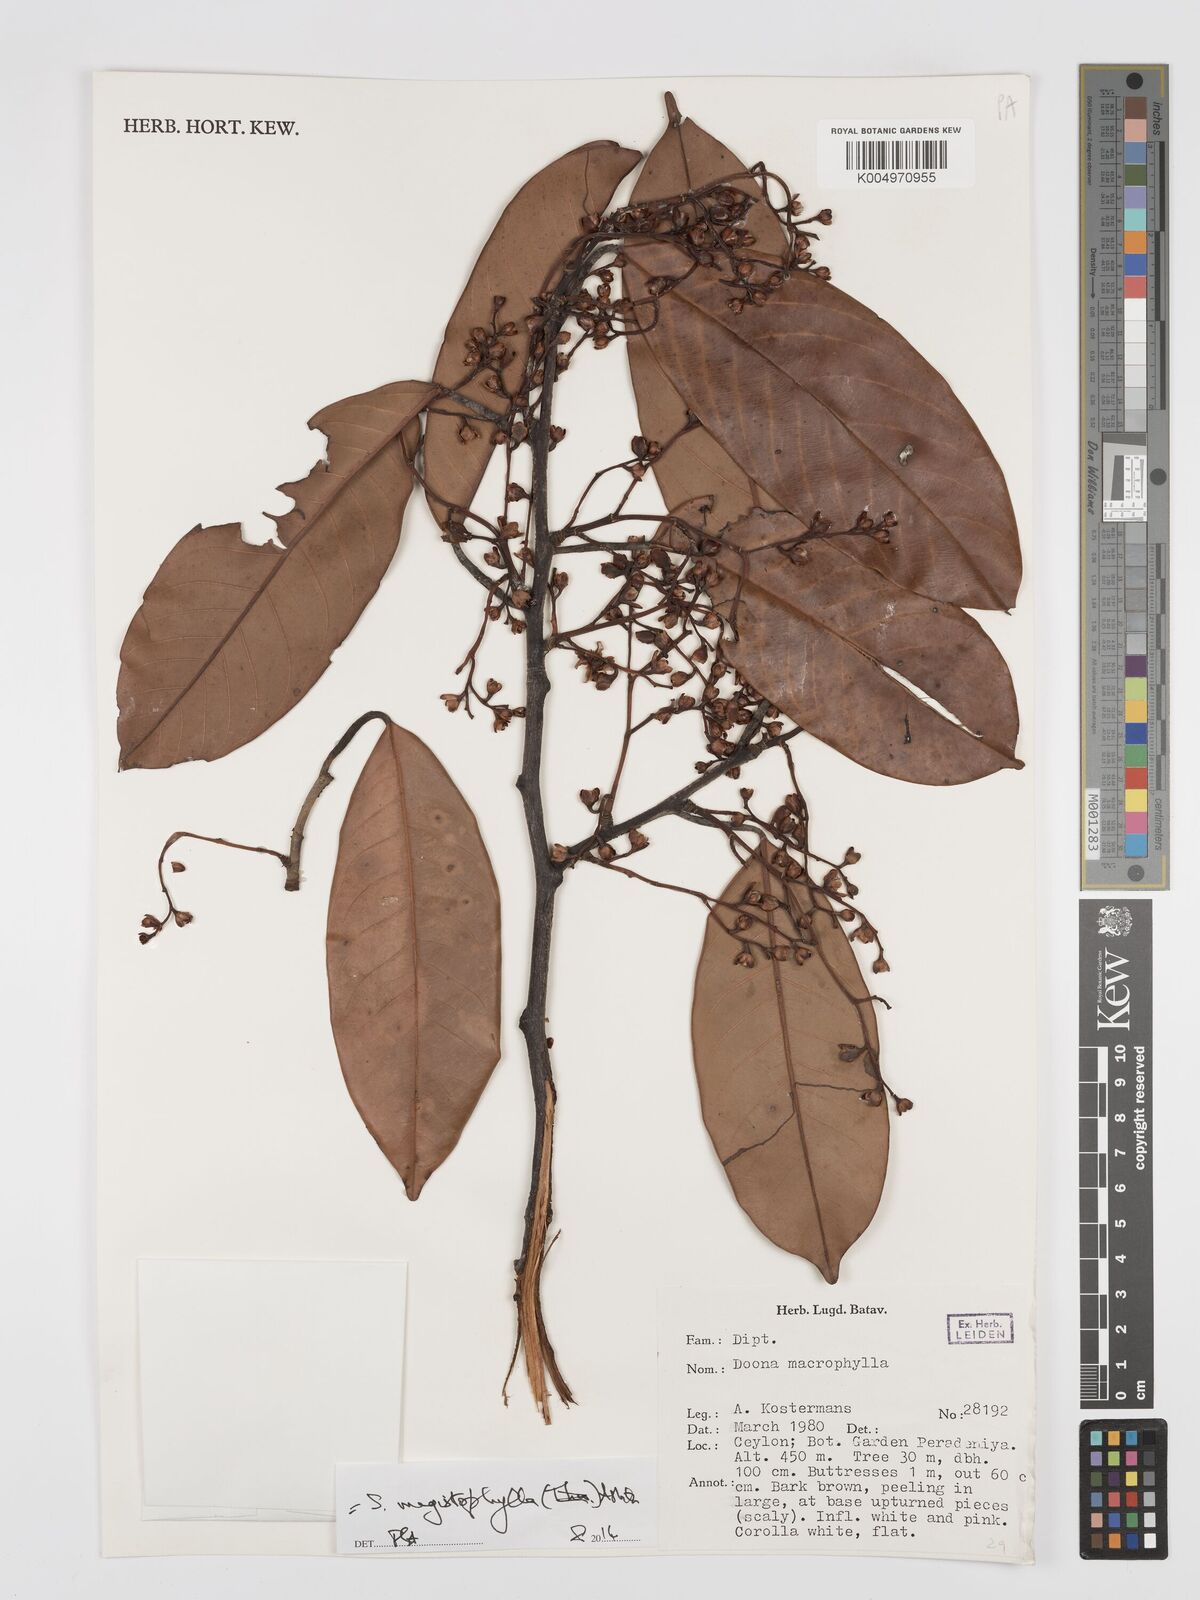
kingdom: Plantae
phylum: Tracheophyta
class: Magnoliopsida
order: Malvales
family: Dipterocarpaceae
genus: Doona
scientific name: Doona macrophylla
